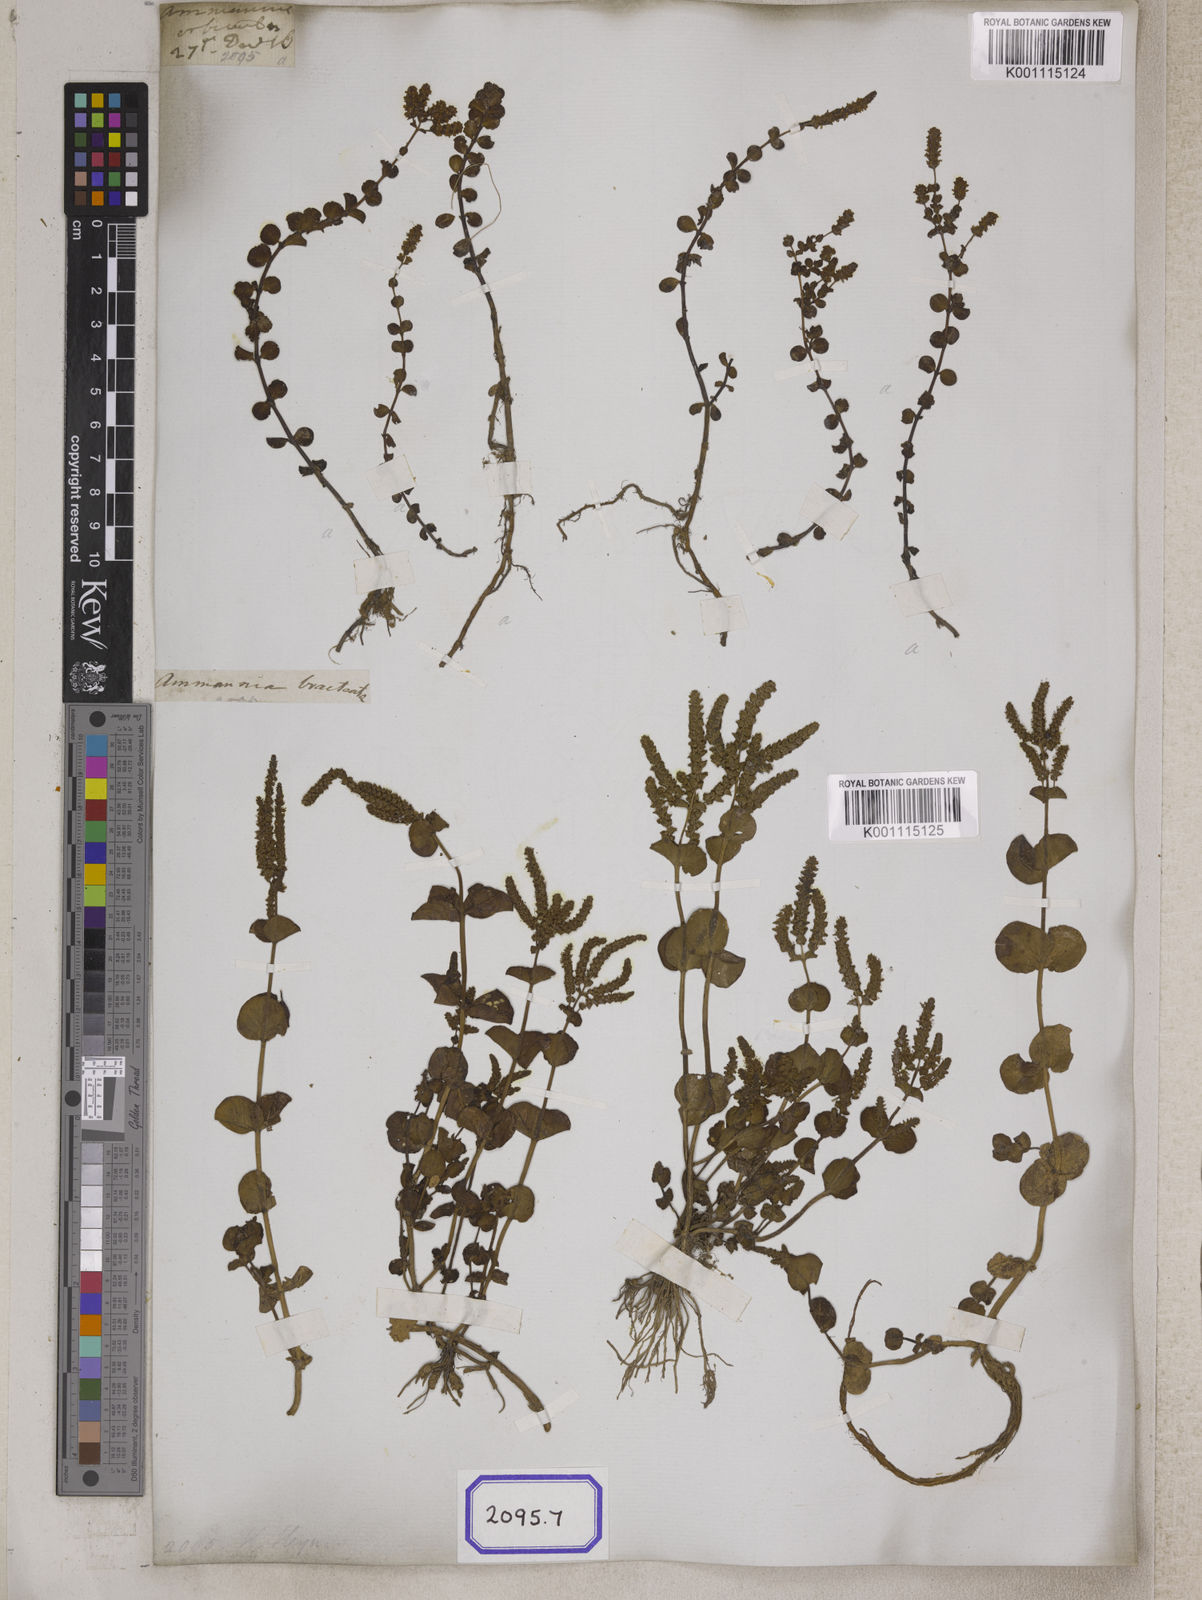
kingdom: Plantae
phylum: Tracheophyta
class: Magnoliopsida
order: Myrtales
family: Lythraceae
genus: Ammannia
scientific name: Ammannia
